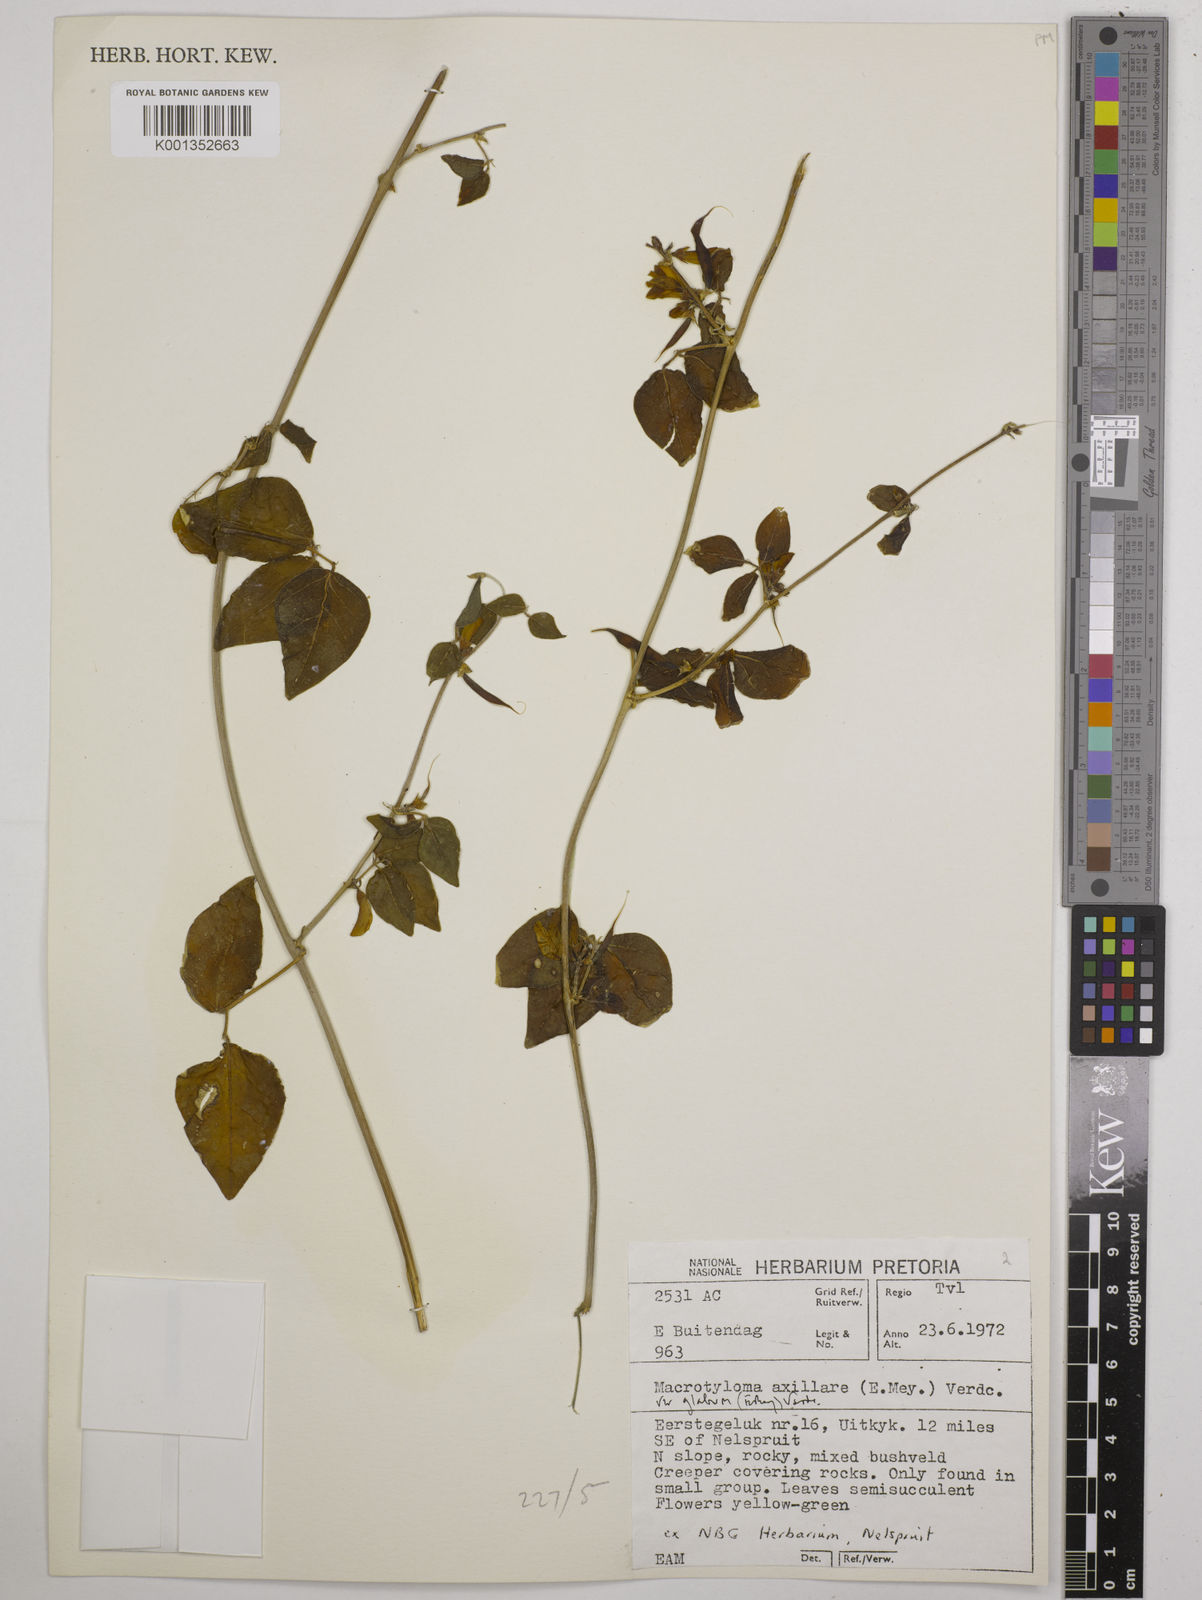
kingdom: Plantae
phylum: Tracheophyta
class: Magnoliopsida
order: Fabales
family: Fabaceae
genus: Macrotyloma
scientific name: Macrotyloma axillare
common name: Perennial horsegram
